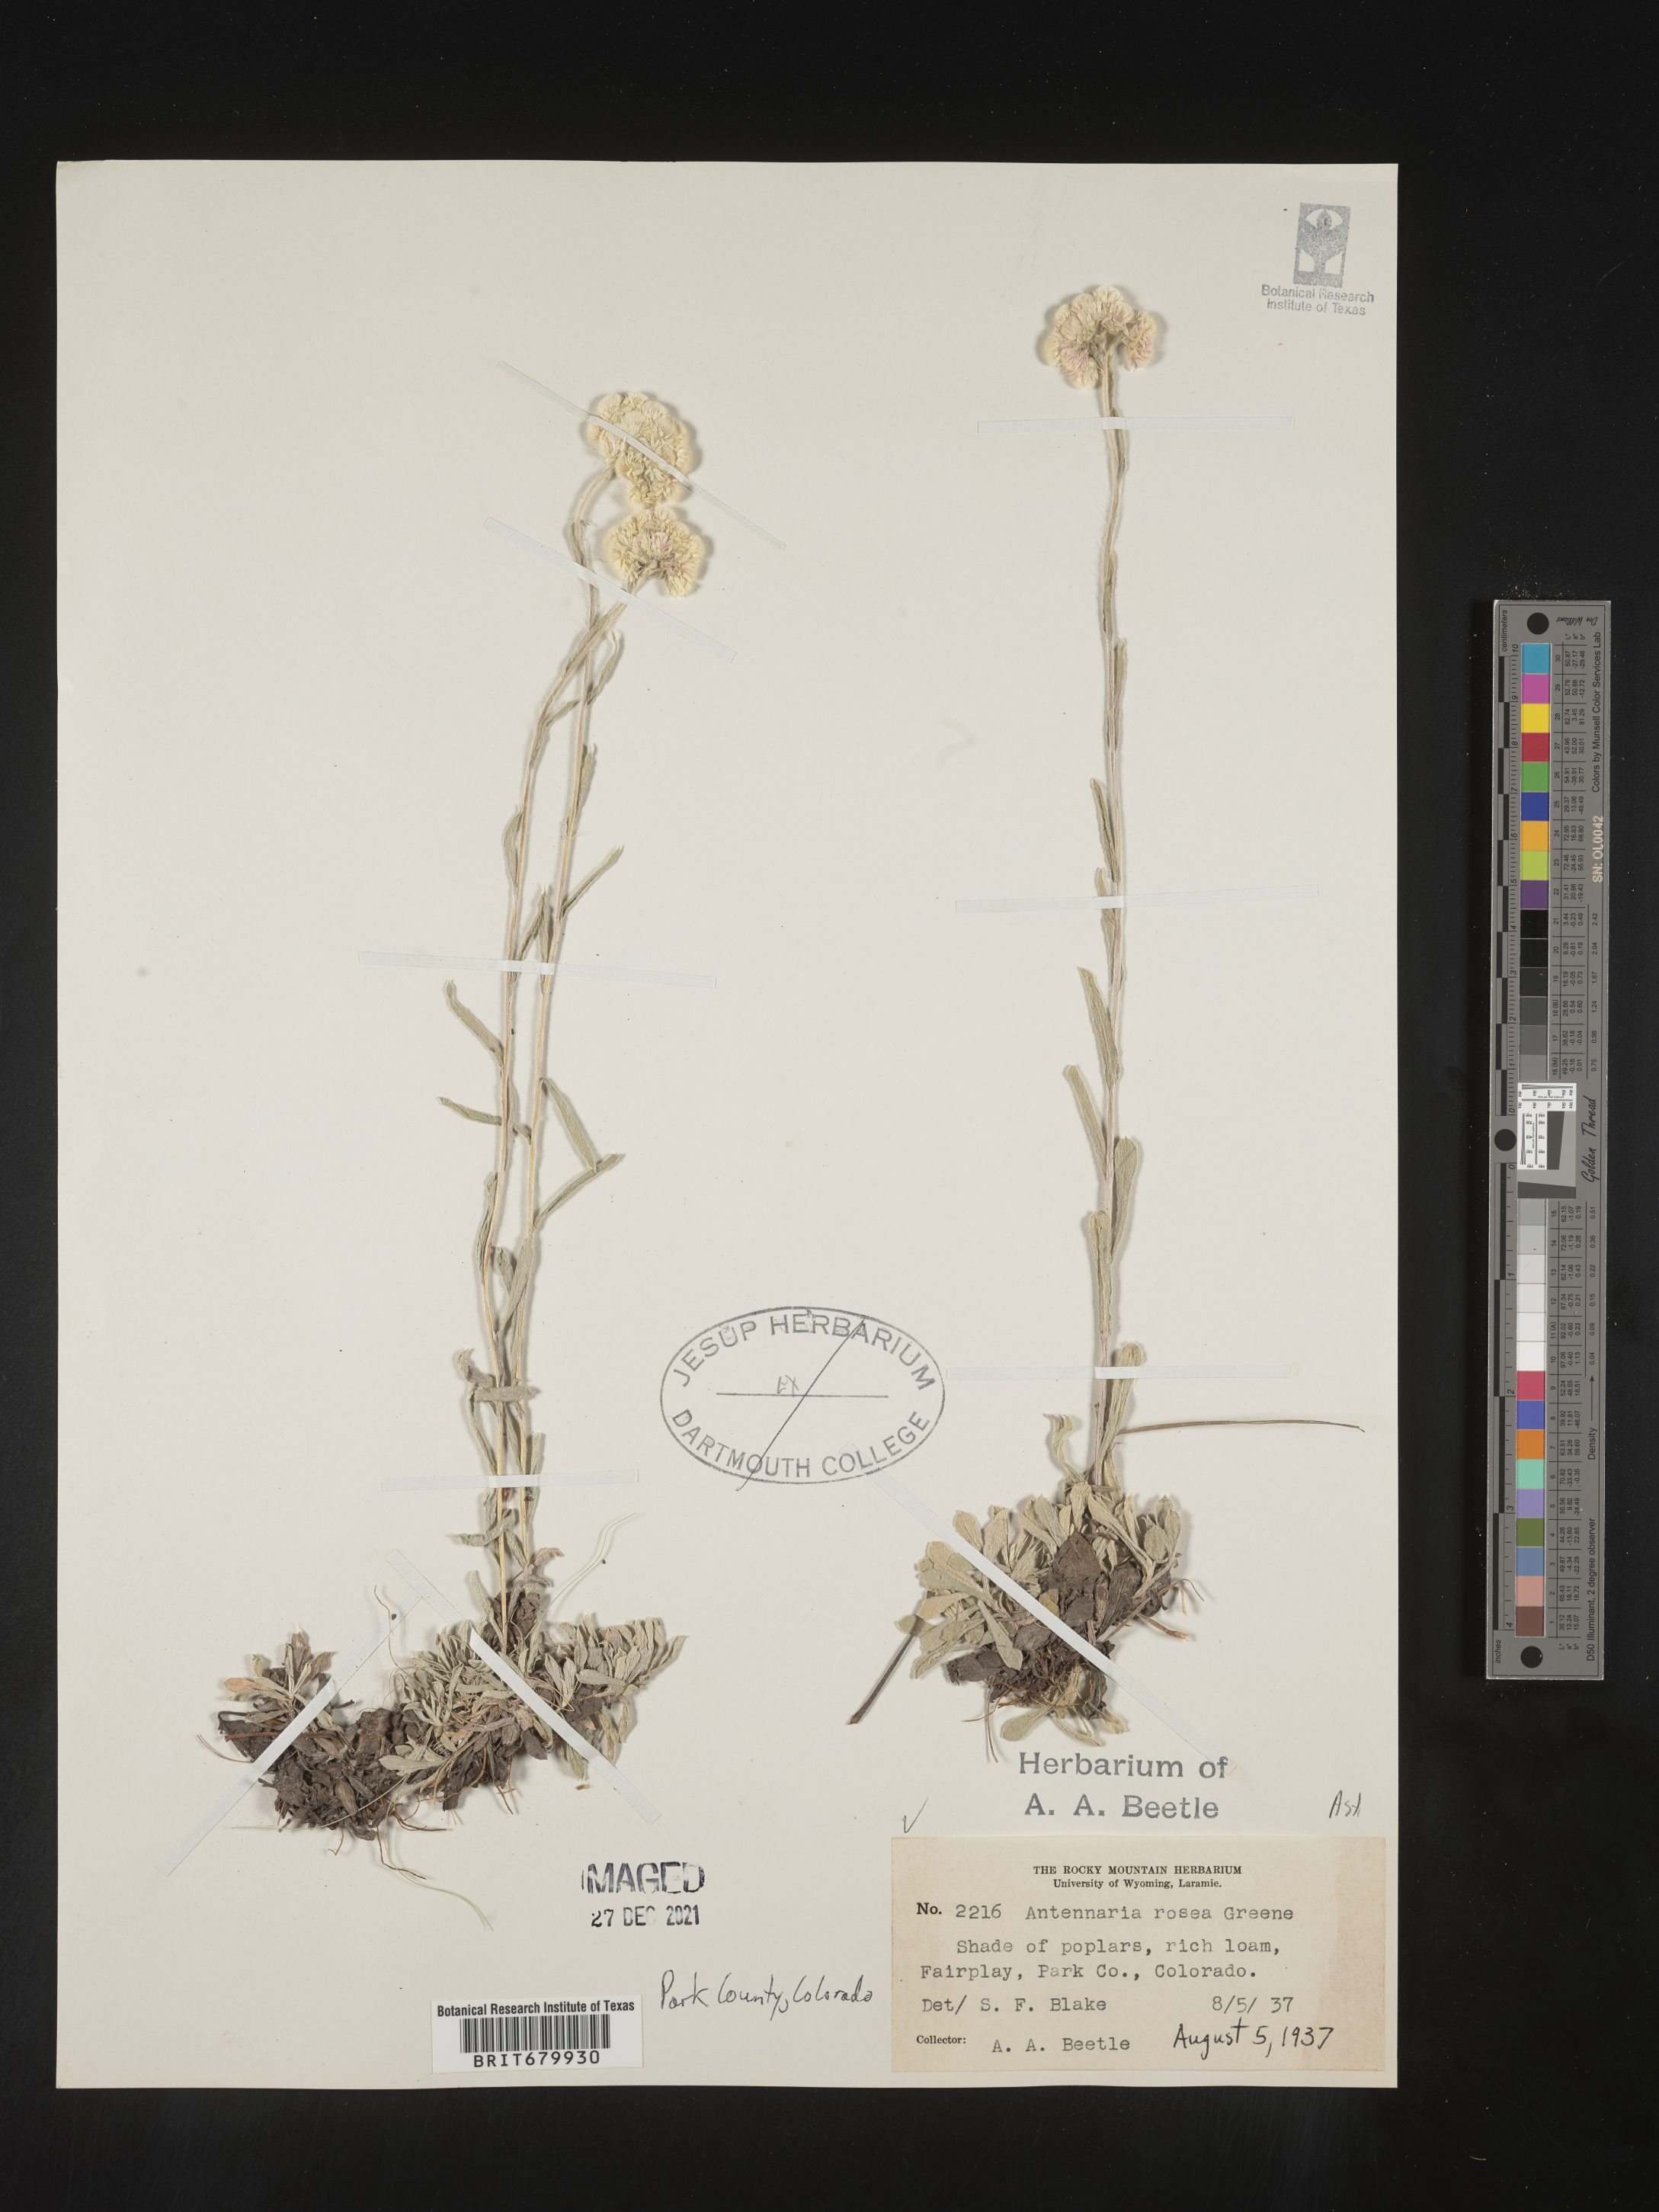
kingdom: Plantae
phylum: Tracheophyta
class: Magnoliopsida
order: Asterales
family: Asteraceae
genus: Antennaria
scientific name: Antennaria rosea
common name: Rosy pussytoes
